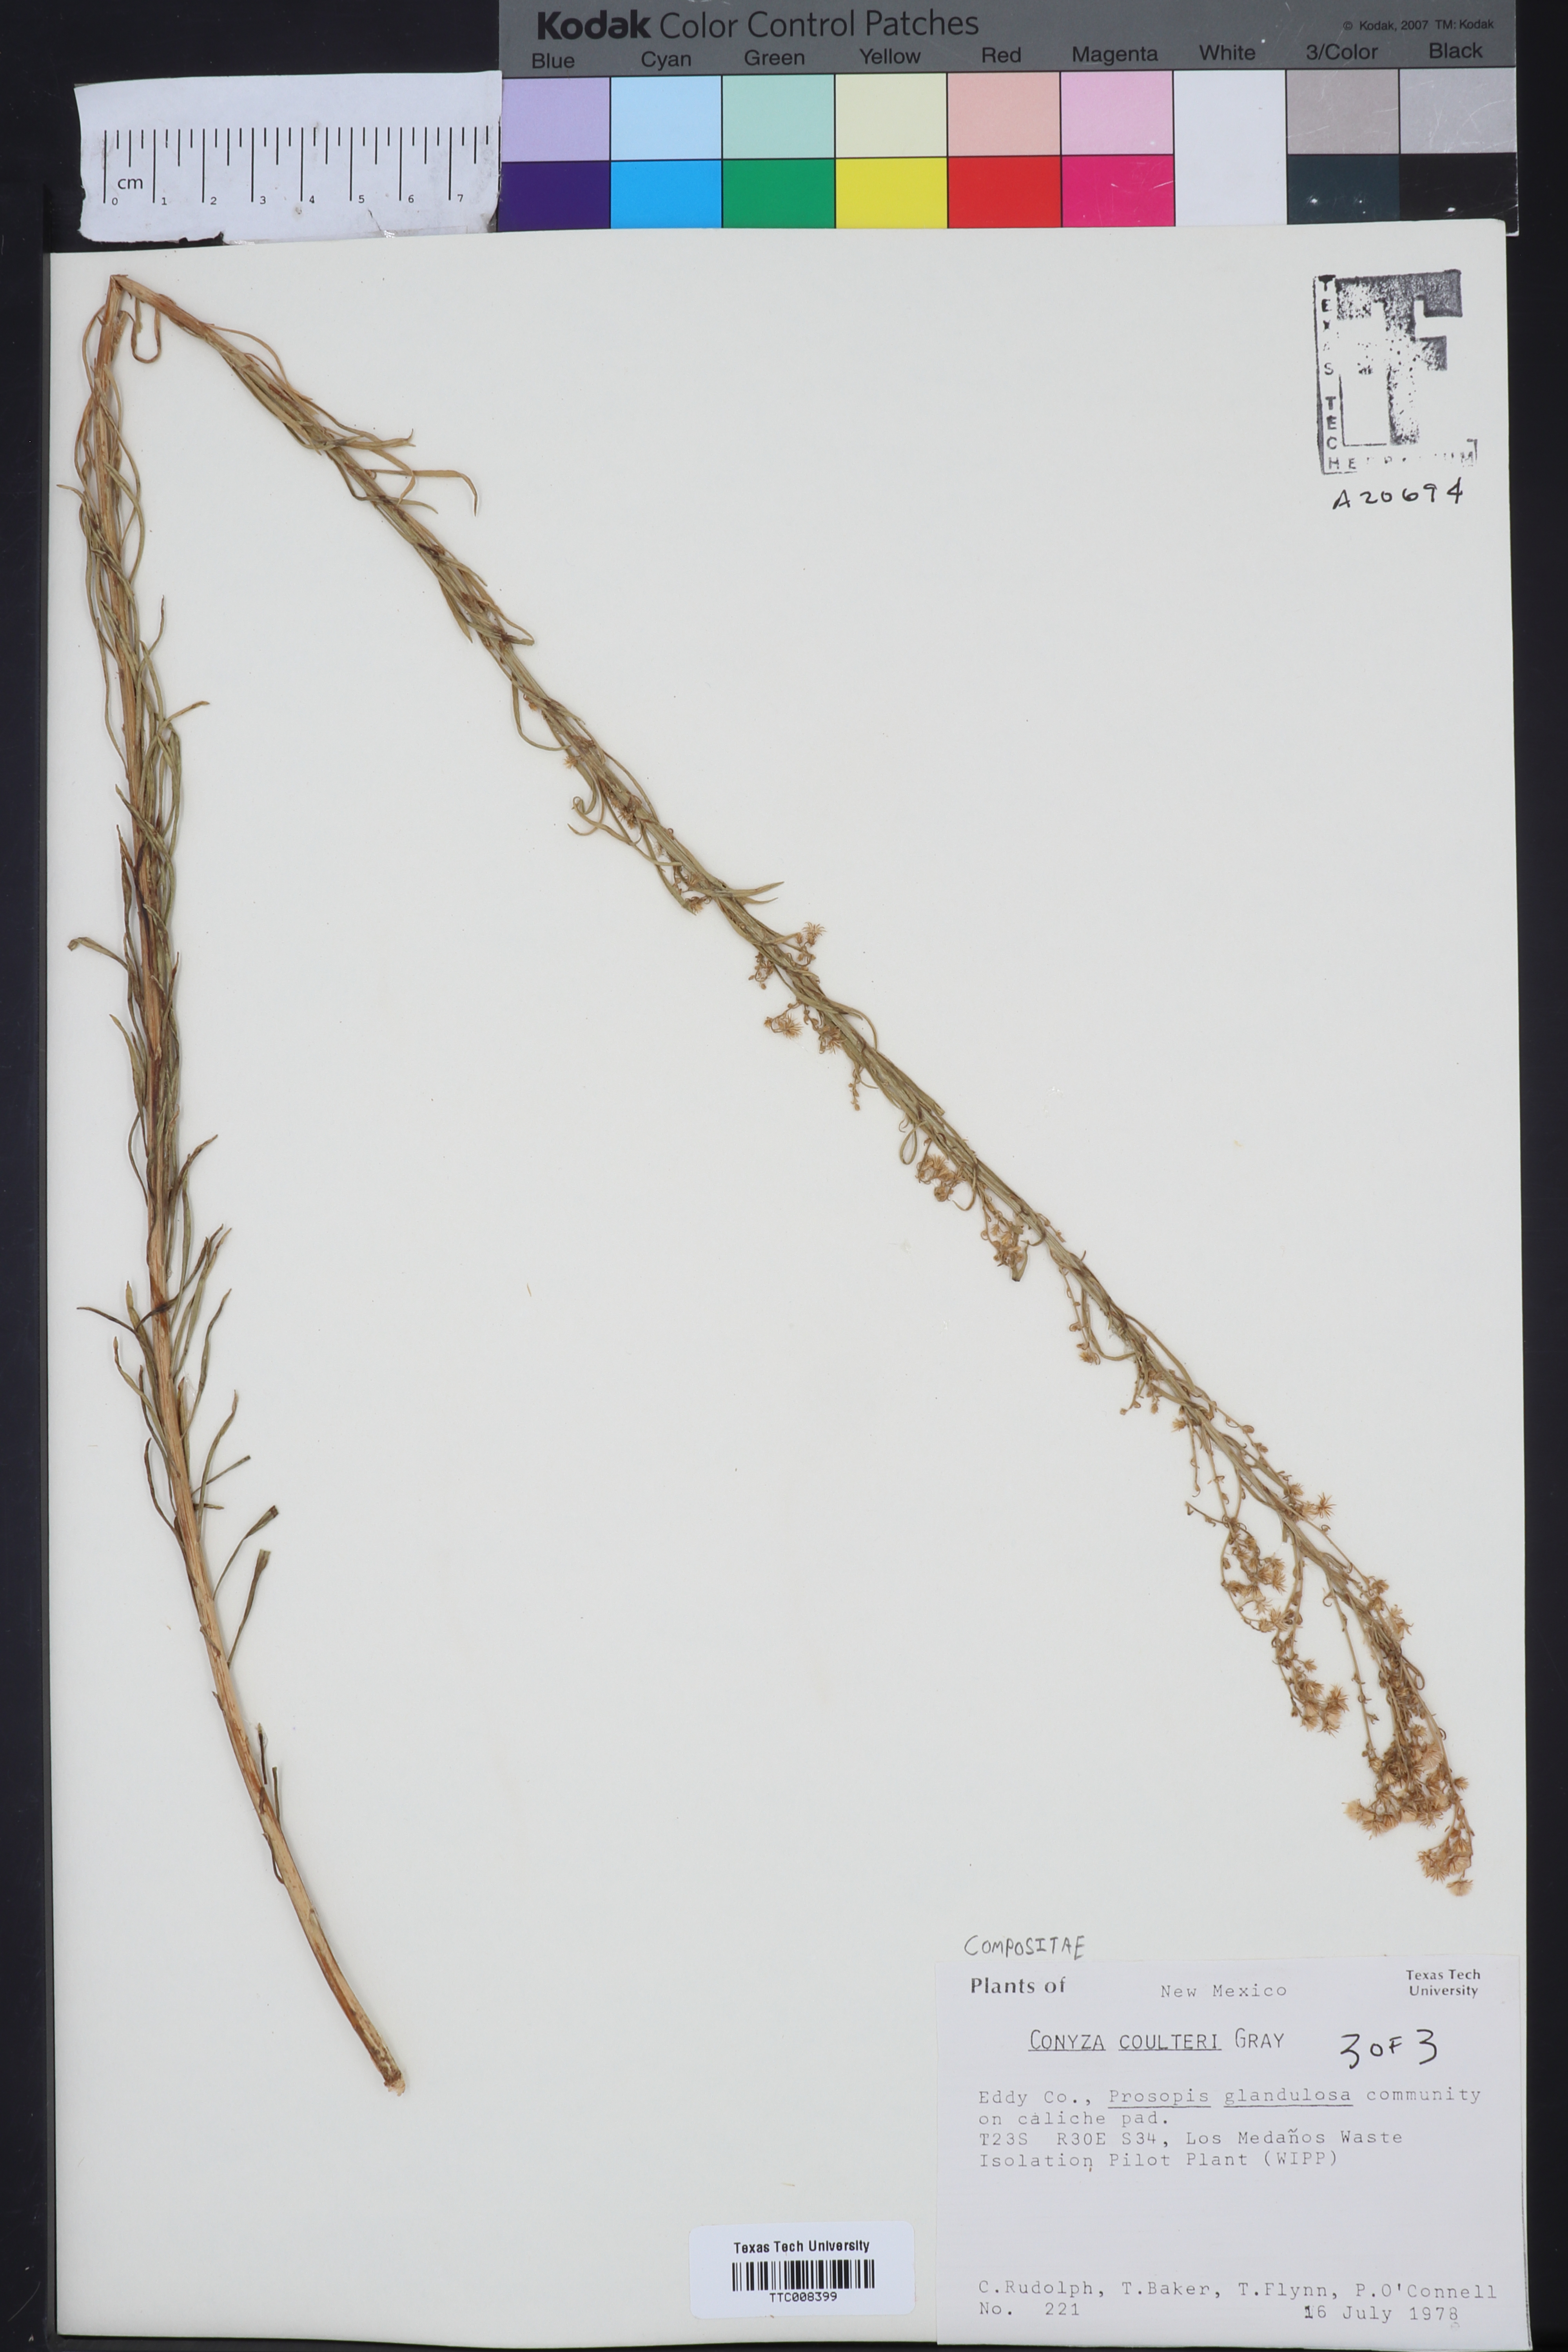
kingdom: Plantae
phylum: Tracheophyta
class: Magnoliopsida
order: Asterales
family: Asteraceae
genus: Pluchea
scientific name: Pluchea carolinensis
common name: Marsh fleabane
